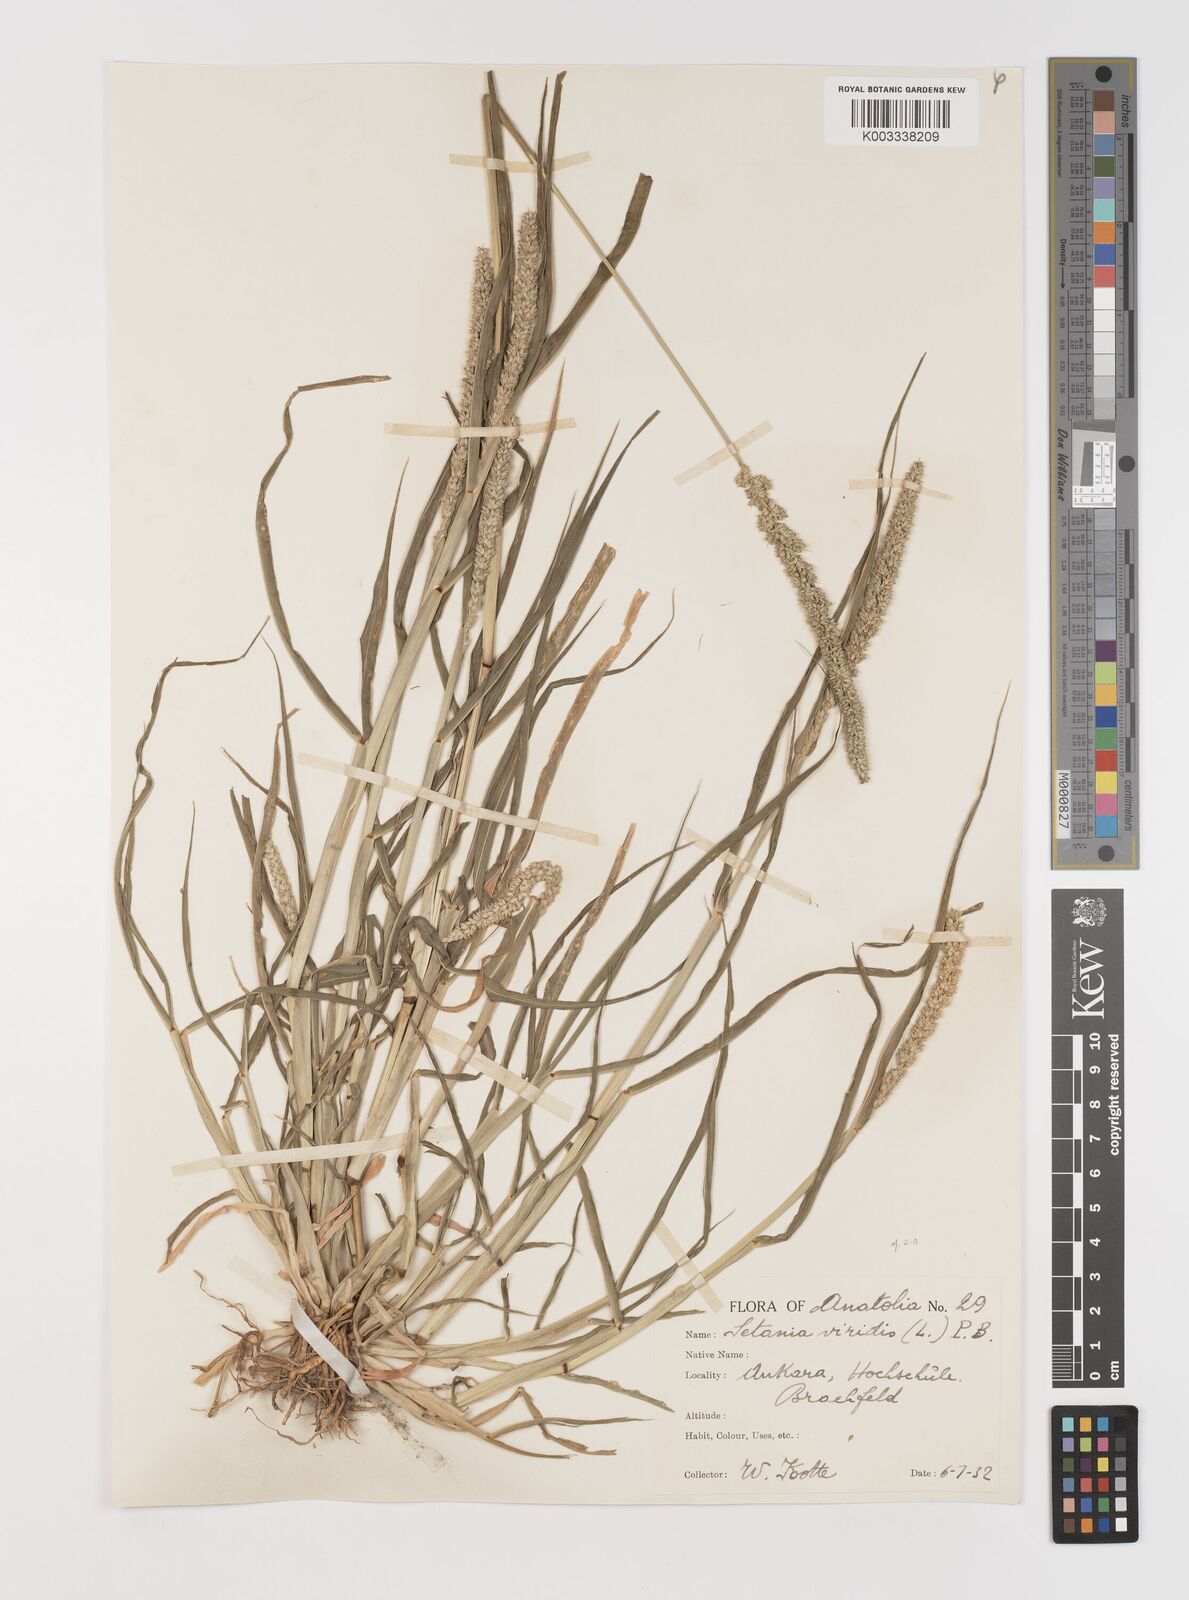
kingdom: Plantae
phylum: Tracheophyta
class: Liliopsida
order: Poales
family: Poaceae
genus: Setaria
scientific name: Setaria verticillata
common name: Hooked bristlegrass
